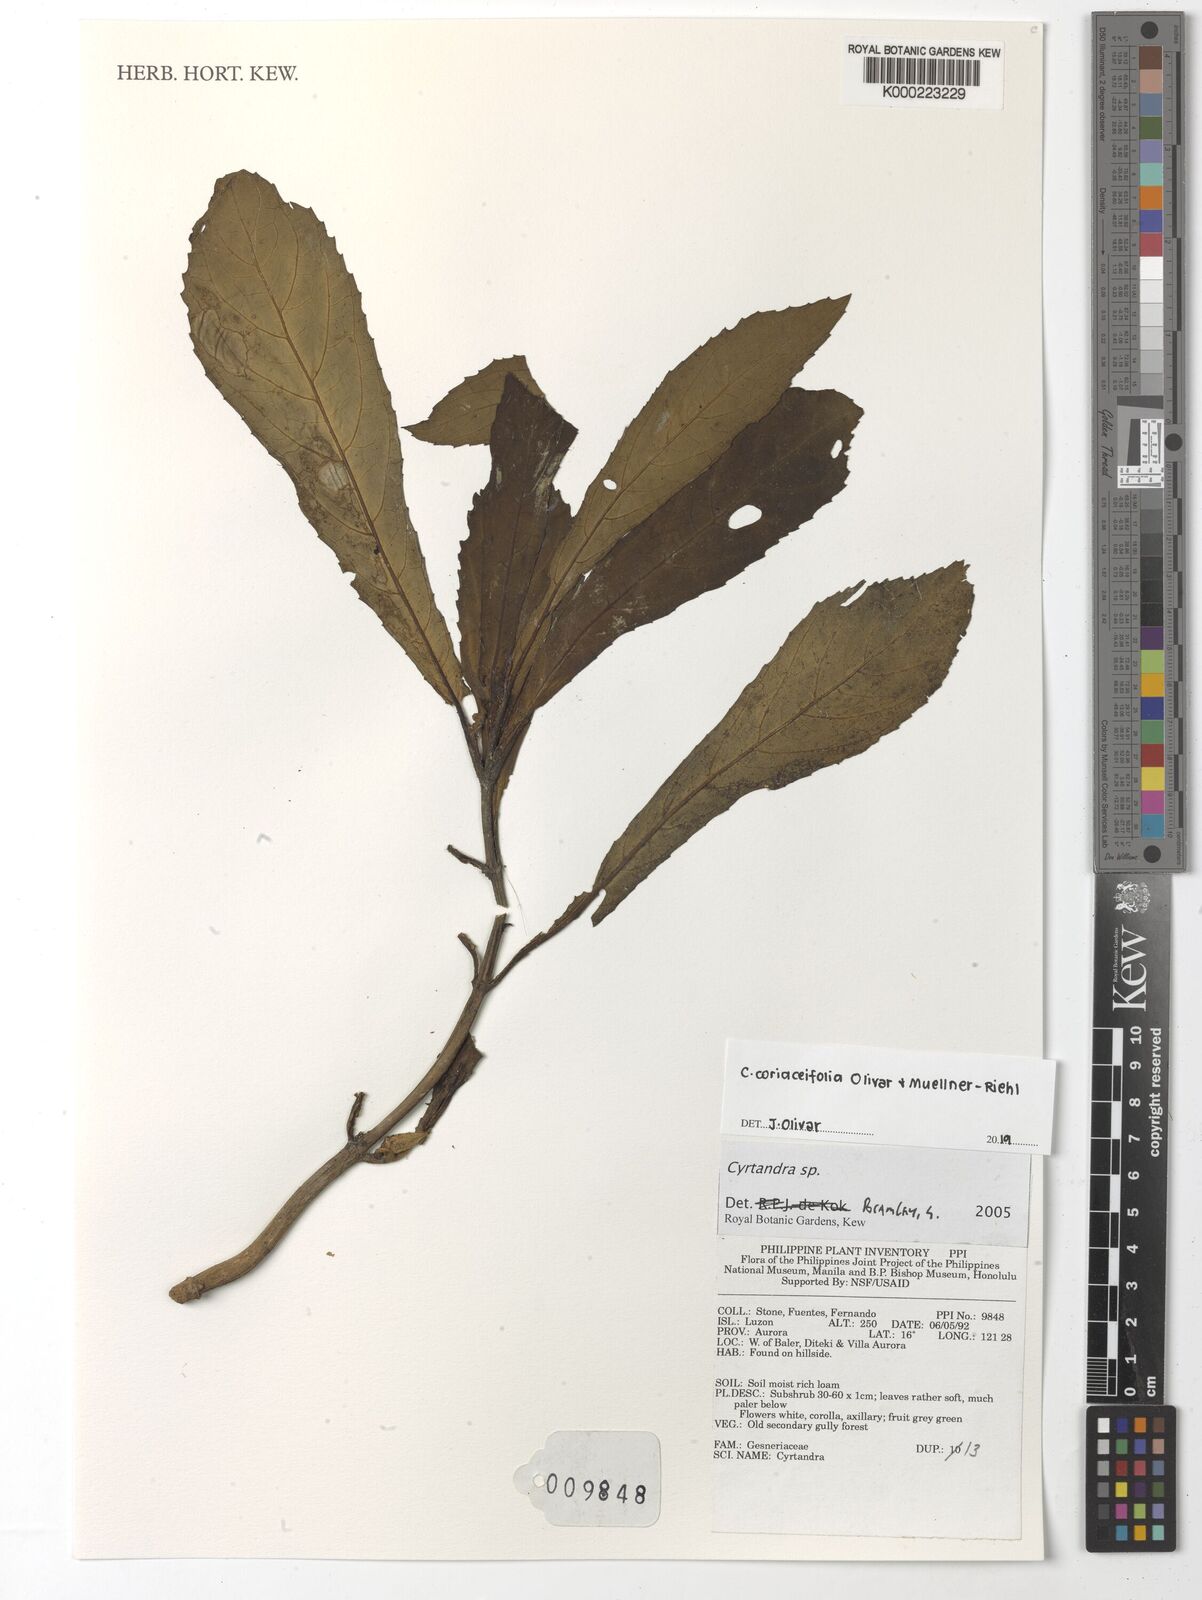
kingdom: Plantae
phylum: Tracheophyta
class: Magnoliopsida
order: Lamiales
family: Gesneriaceae
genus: Cyrtandra
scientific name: Cyrtandra
